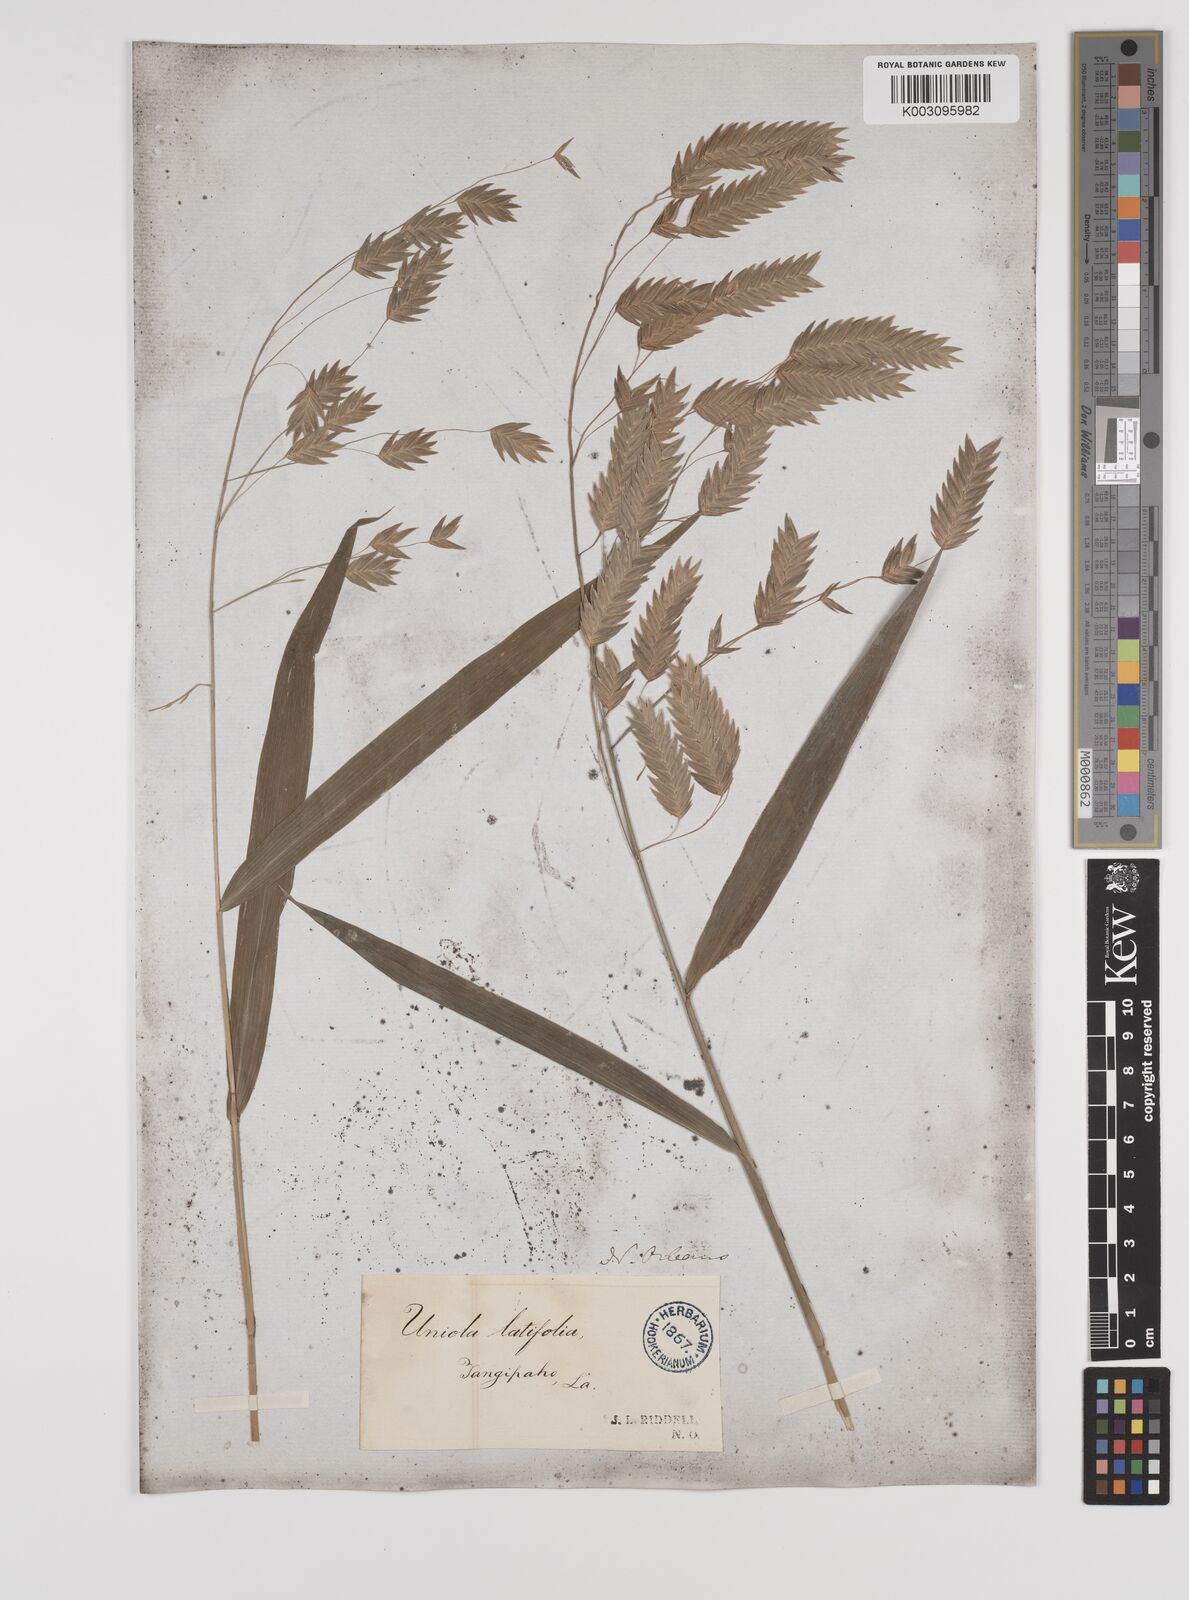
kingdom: Plantae
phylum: Tracheophyta
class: Liliopsida
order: Poales
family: Poaceae
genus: Chasmanthium
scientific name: Chasmanthium latifolium
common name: Broad-leaved chasmanthium
